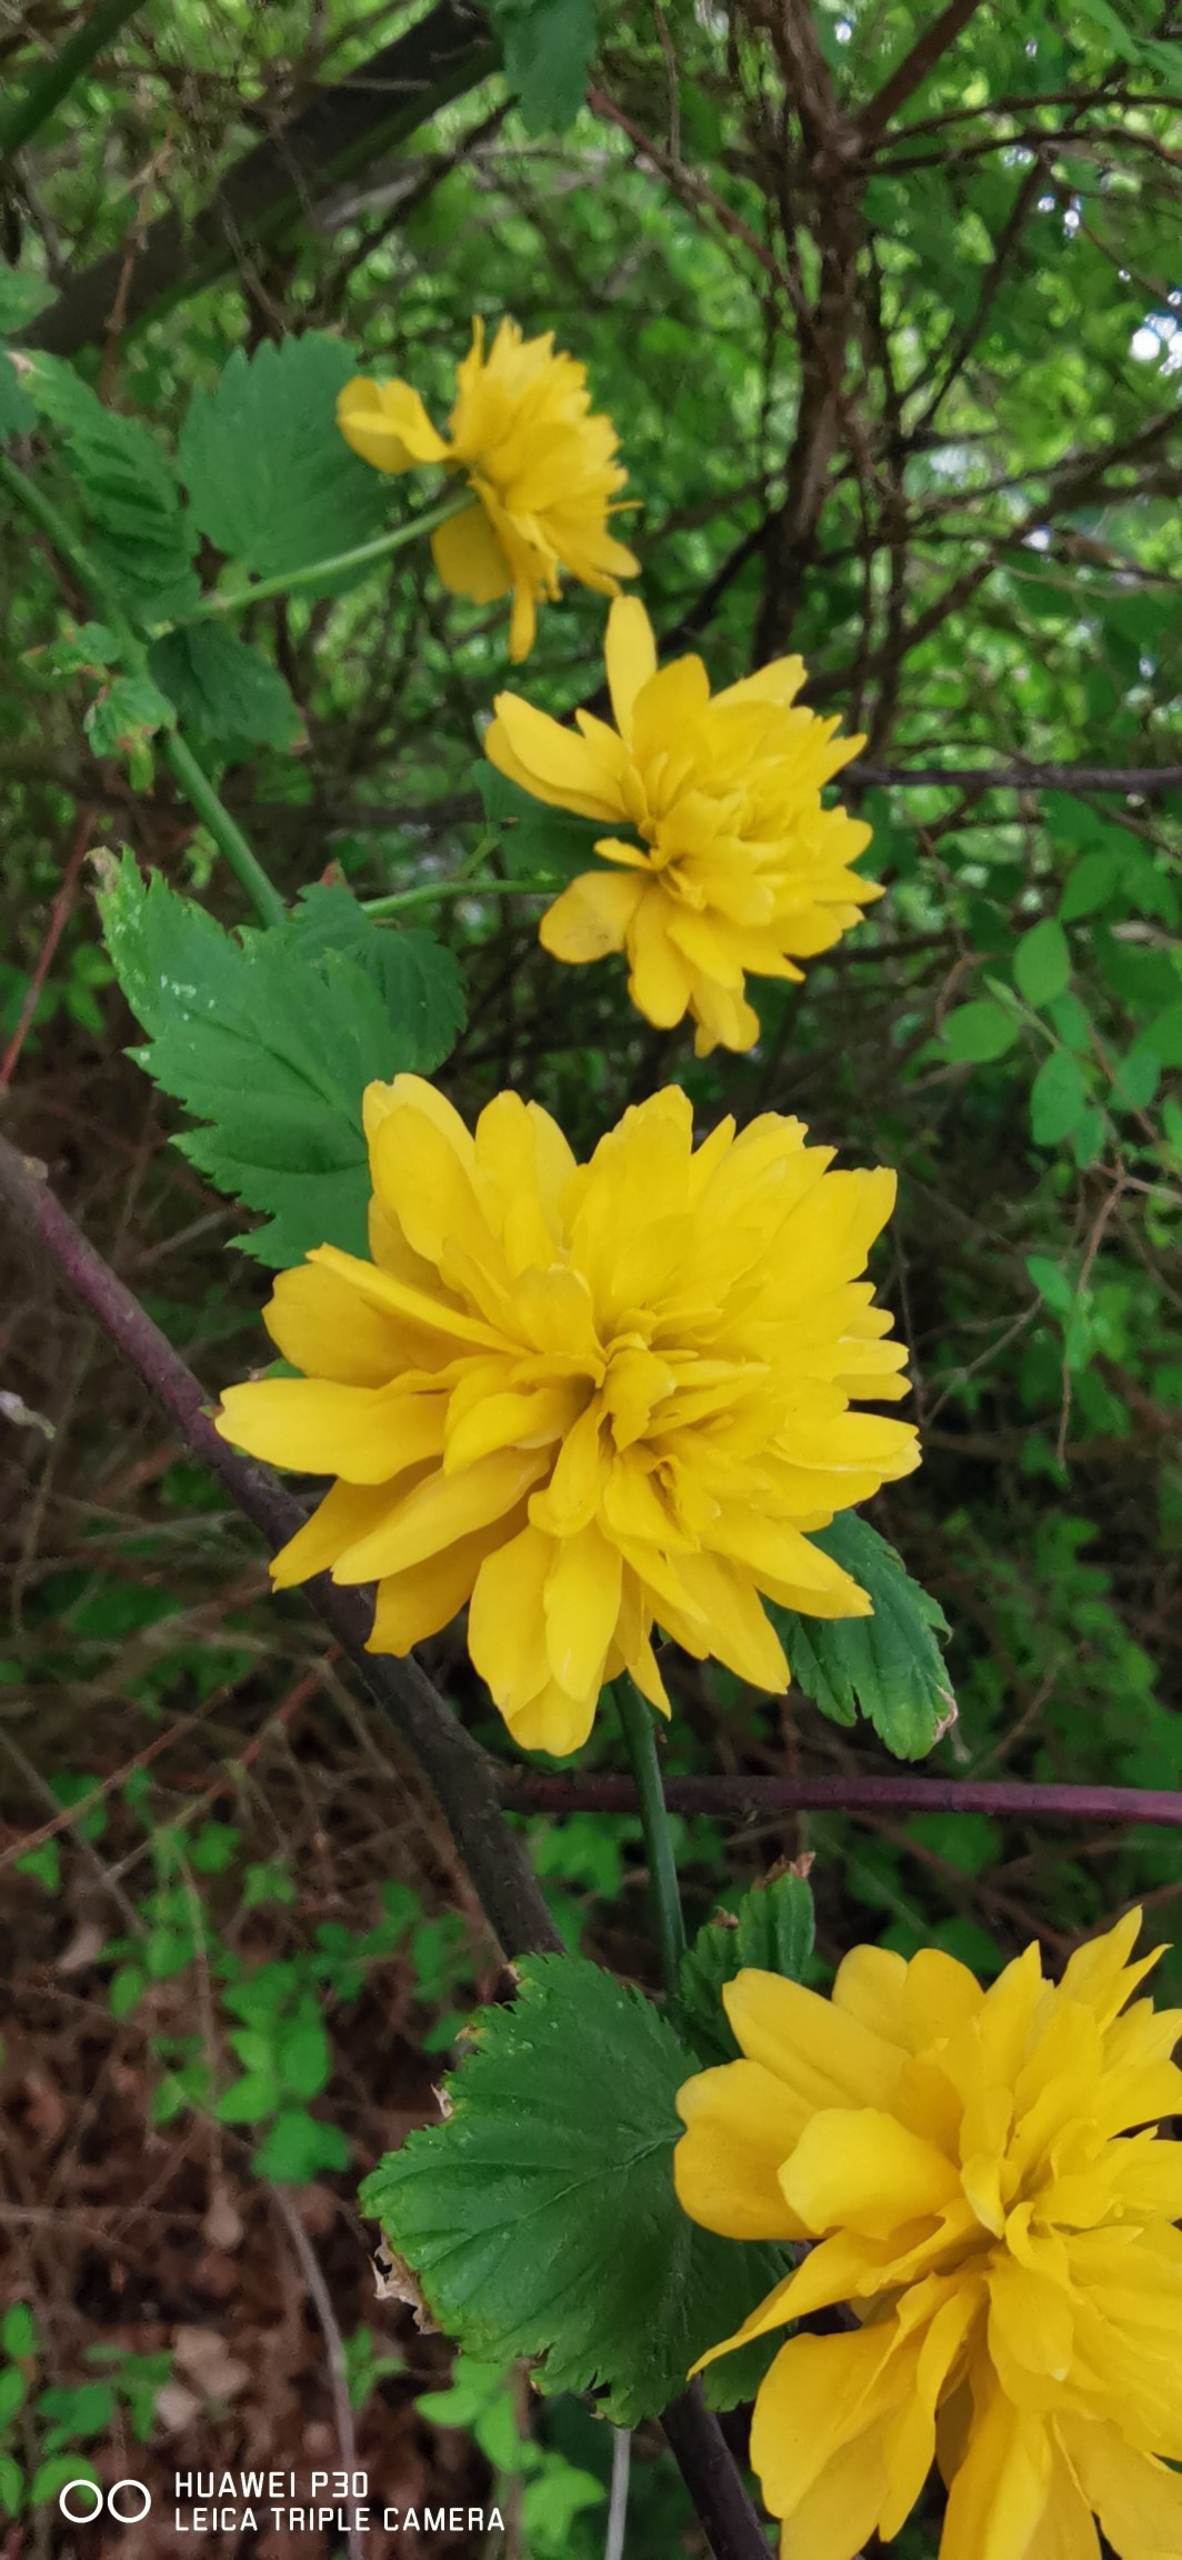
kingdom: Plantae
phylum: Tracheophyta
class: Magnoliopsida
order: Rosales
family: Rosaceae
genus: Kerria
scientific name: Kerria japonica
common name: Ranunkelbusk
